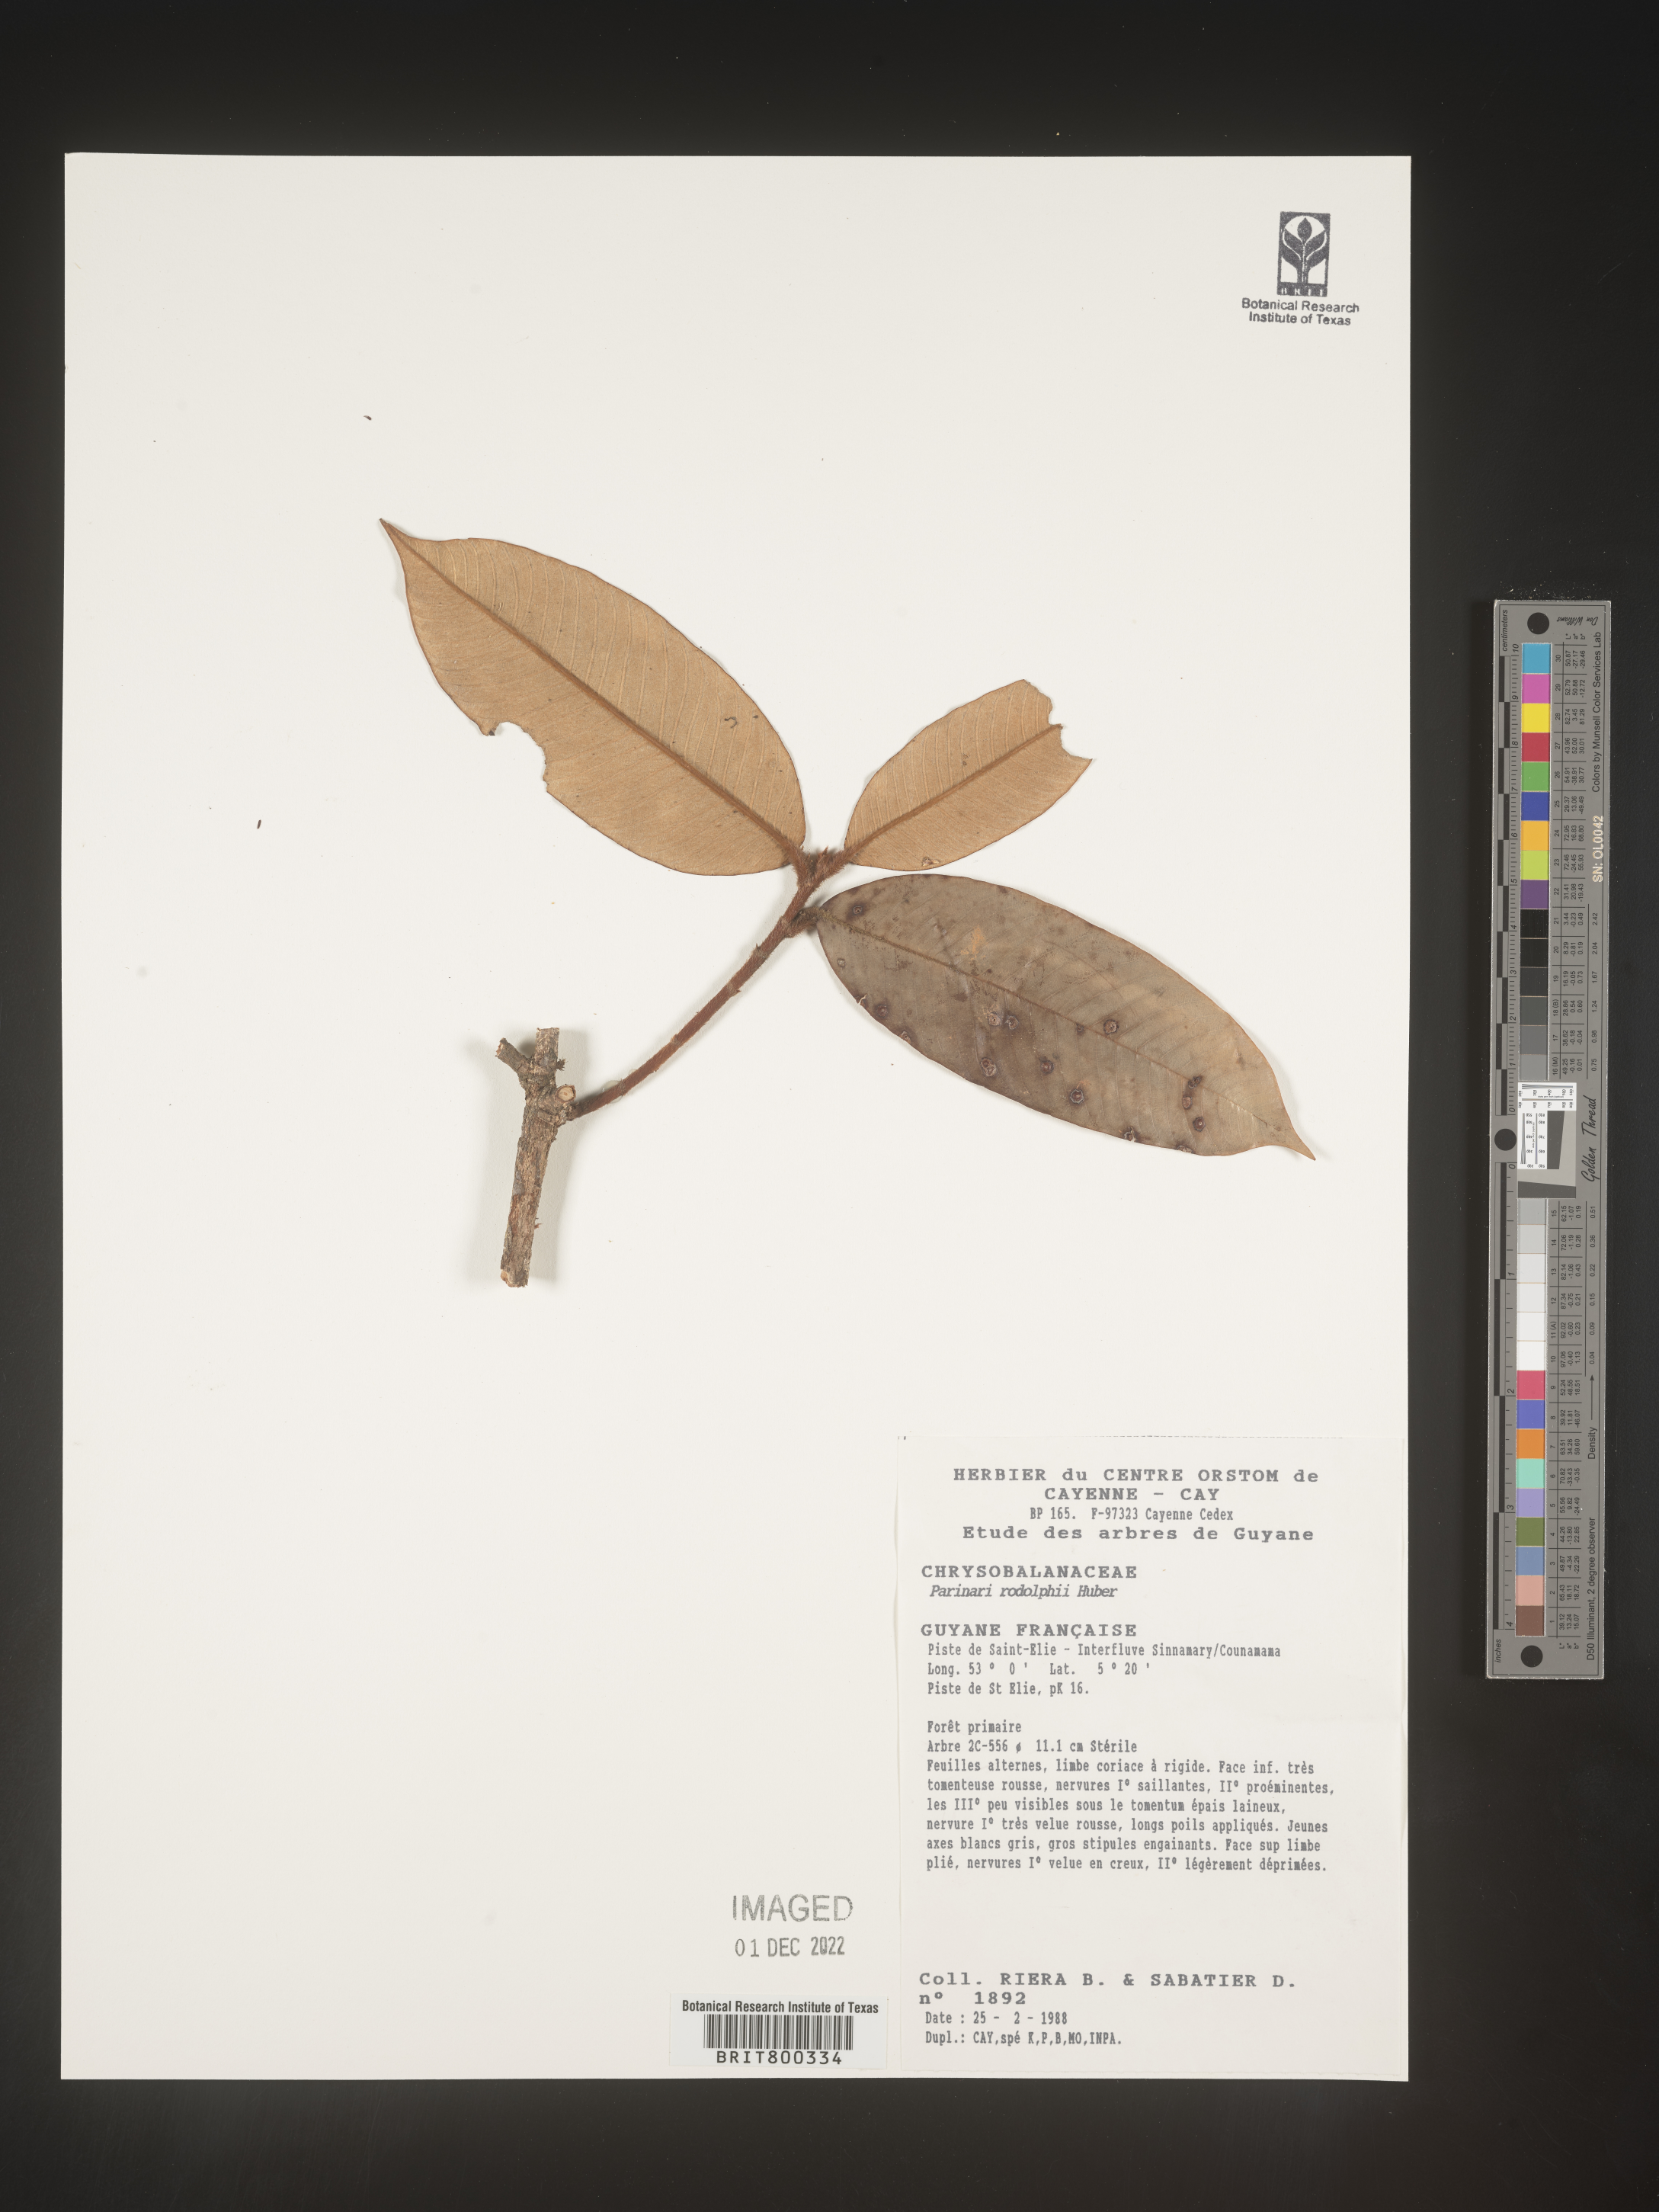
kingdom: Plantae
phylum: Tracheophyta
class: Magnoliopsida
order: Malpighiales
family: Chrysobalanaceae
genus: Parinari
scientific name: Parinari
